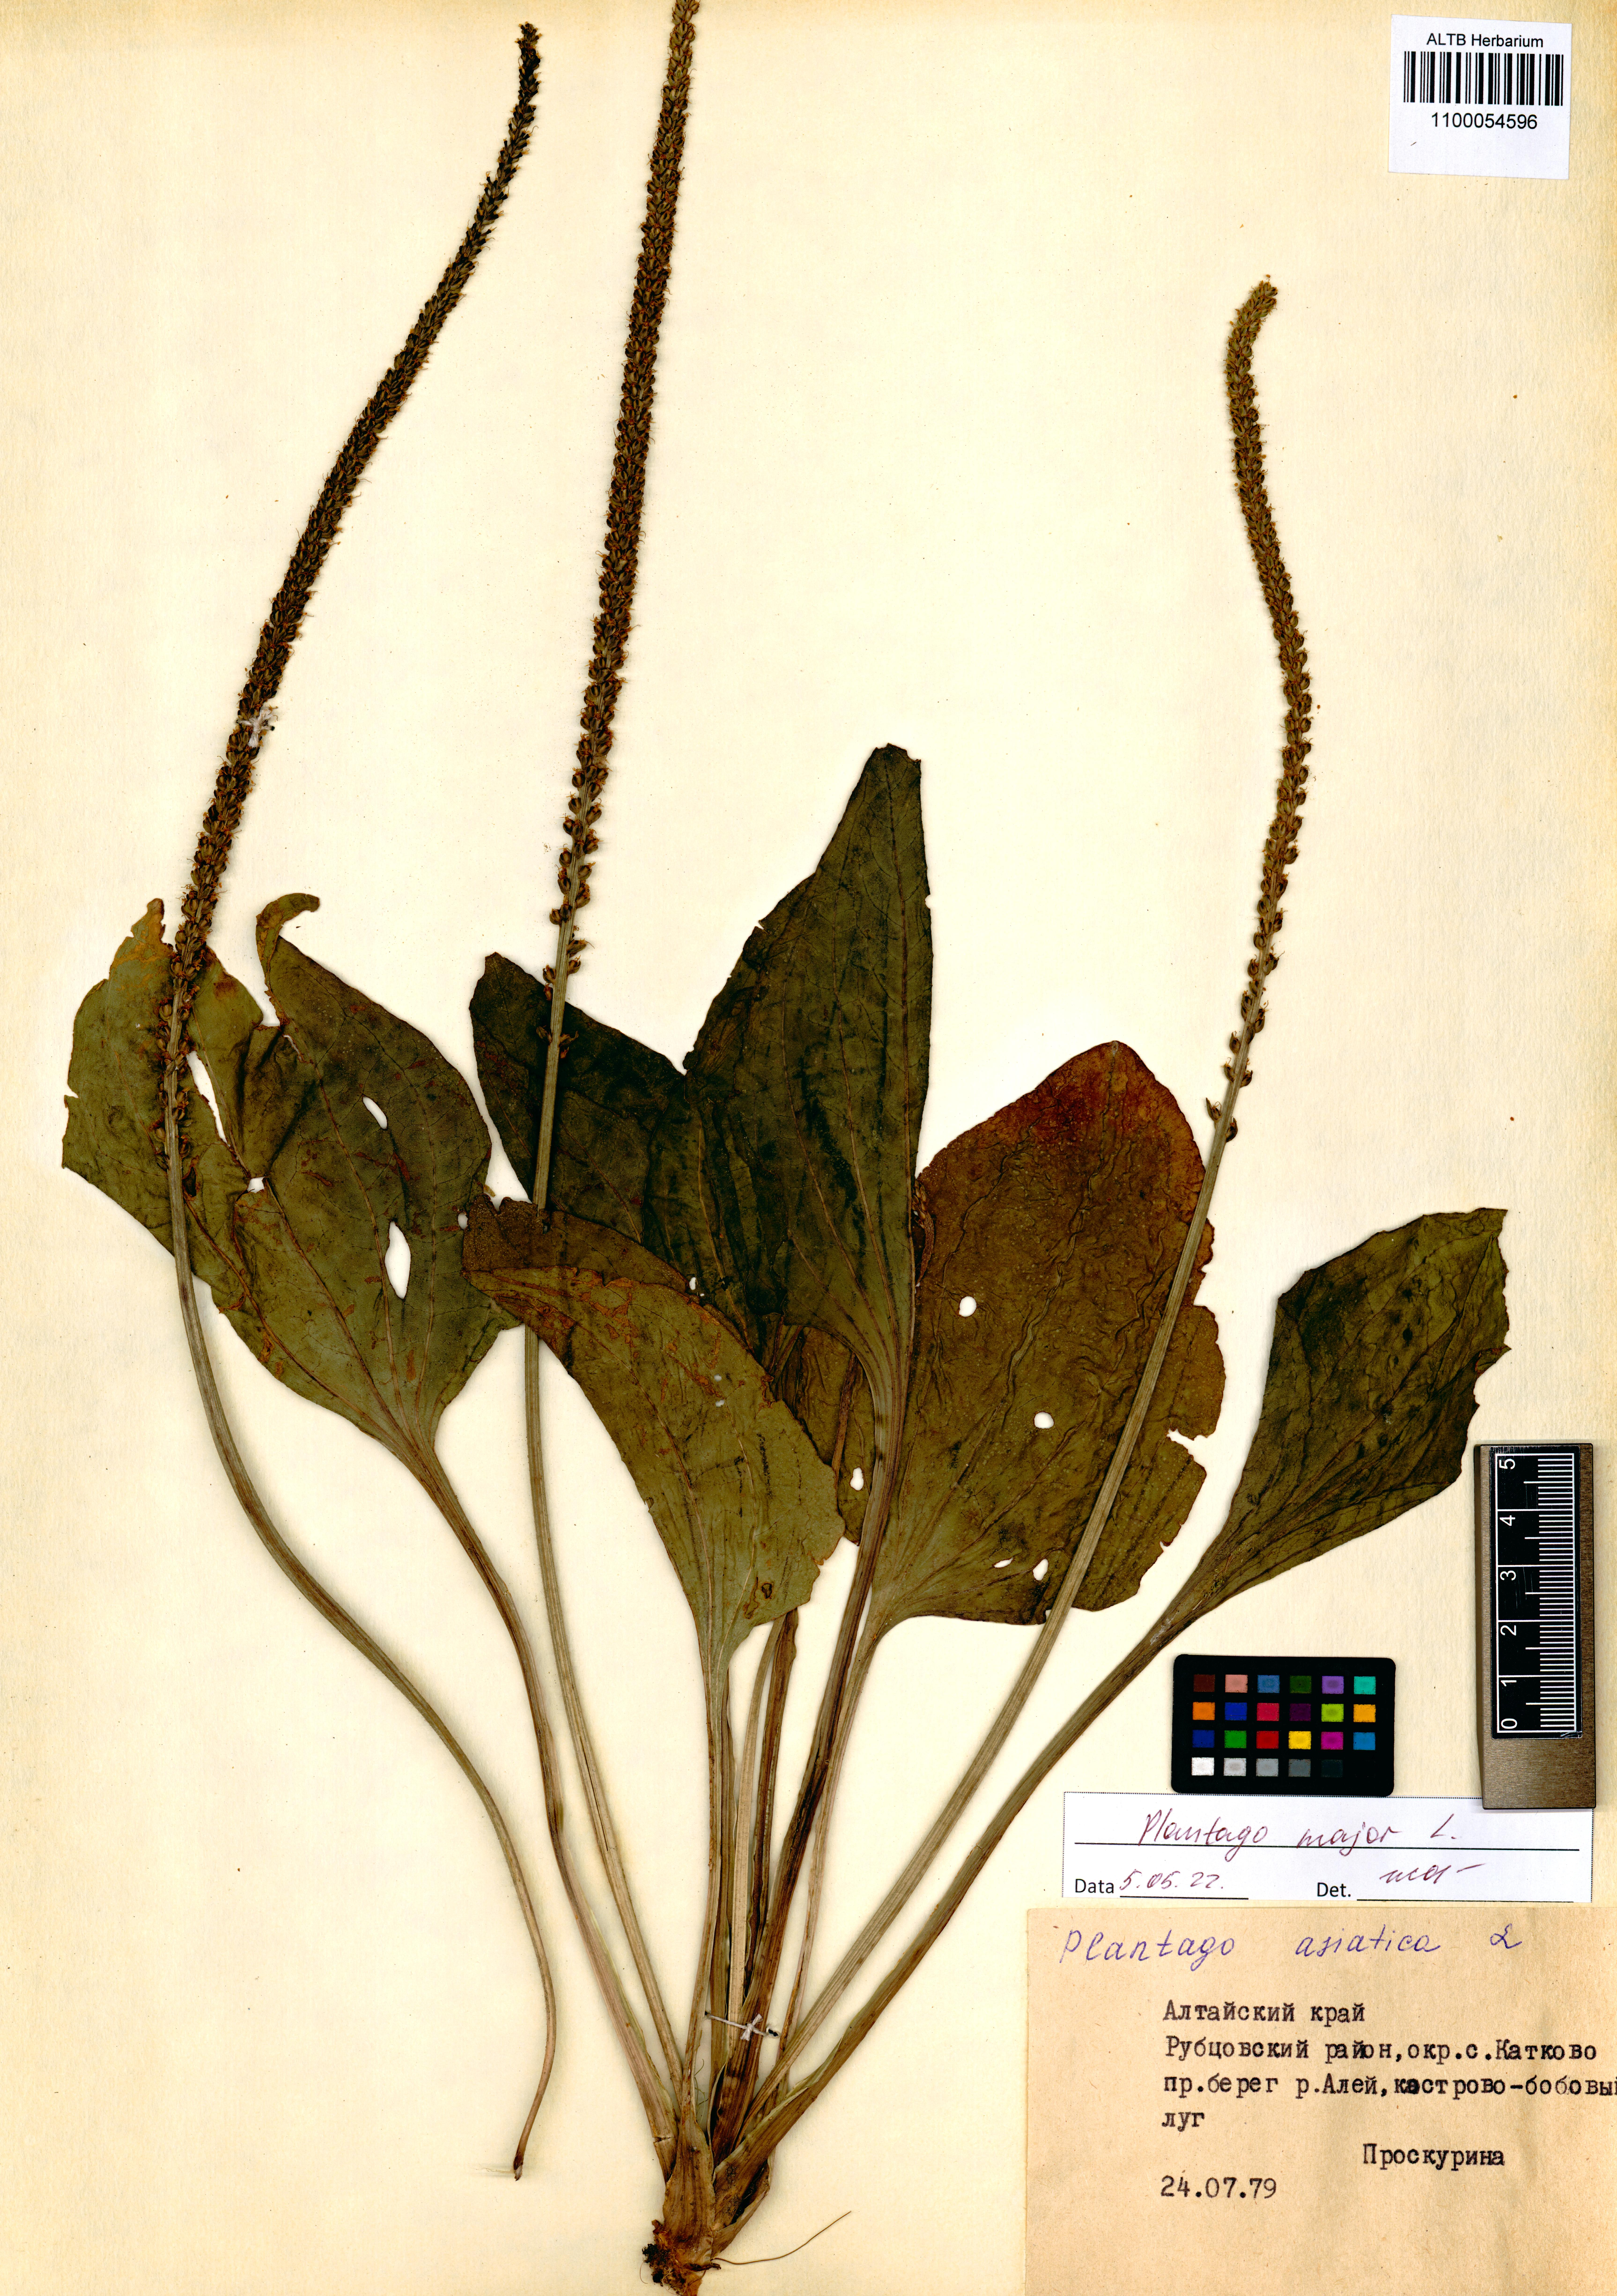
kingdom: Plantae
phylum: Tracheophyta
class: Magnoliopsida
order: Lamiales
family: Plantaginaceae
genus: Plantago
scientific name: Plantago major
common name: Common plantain
